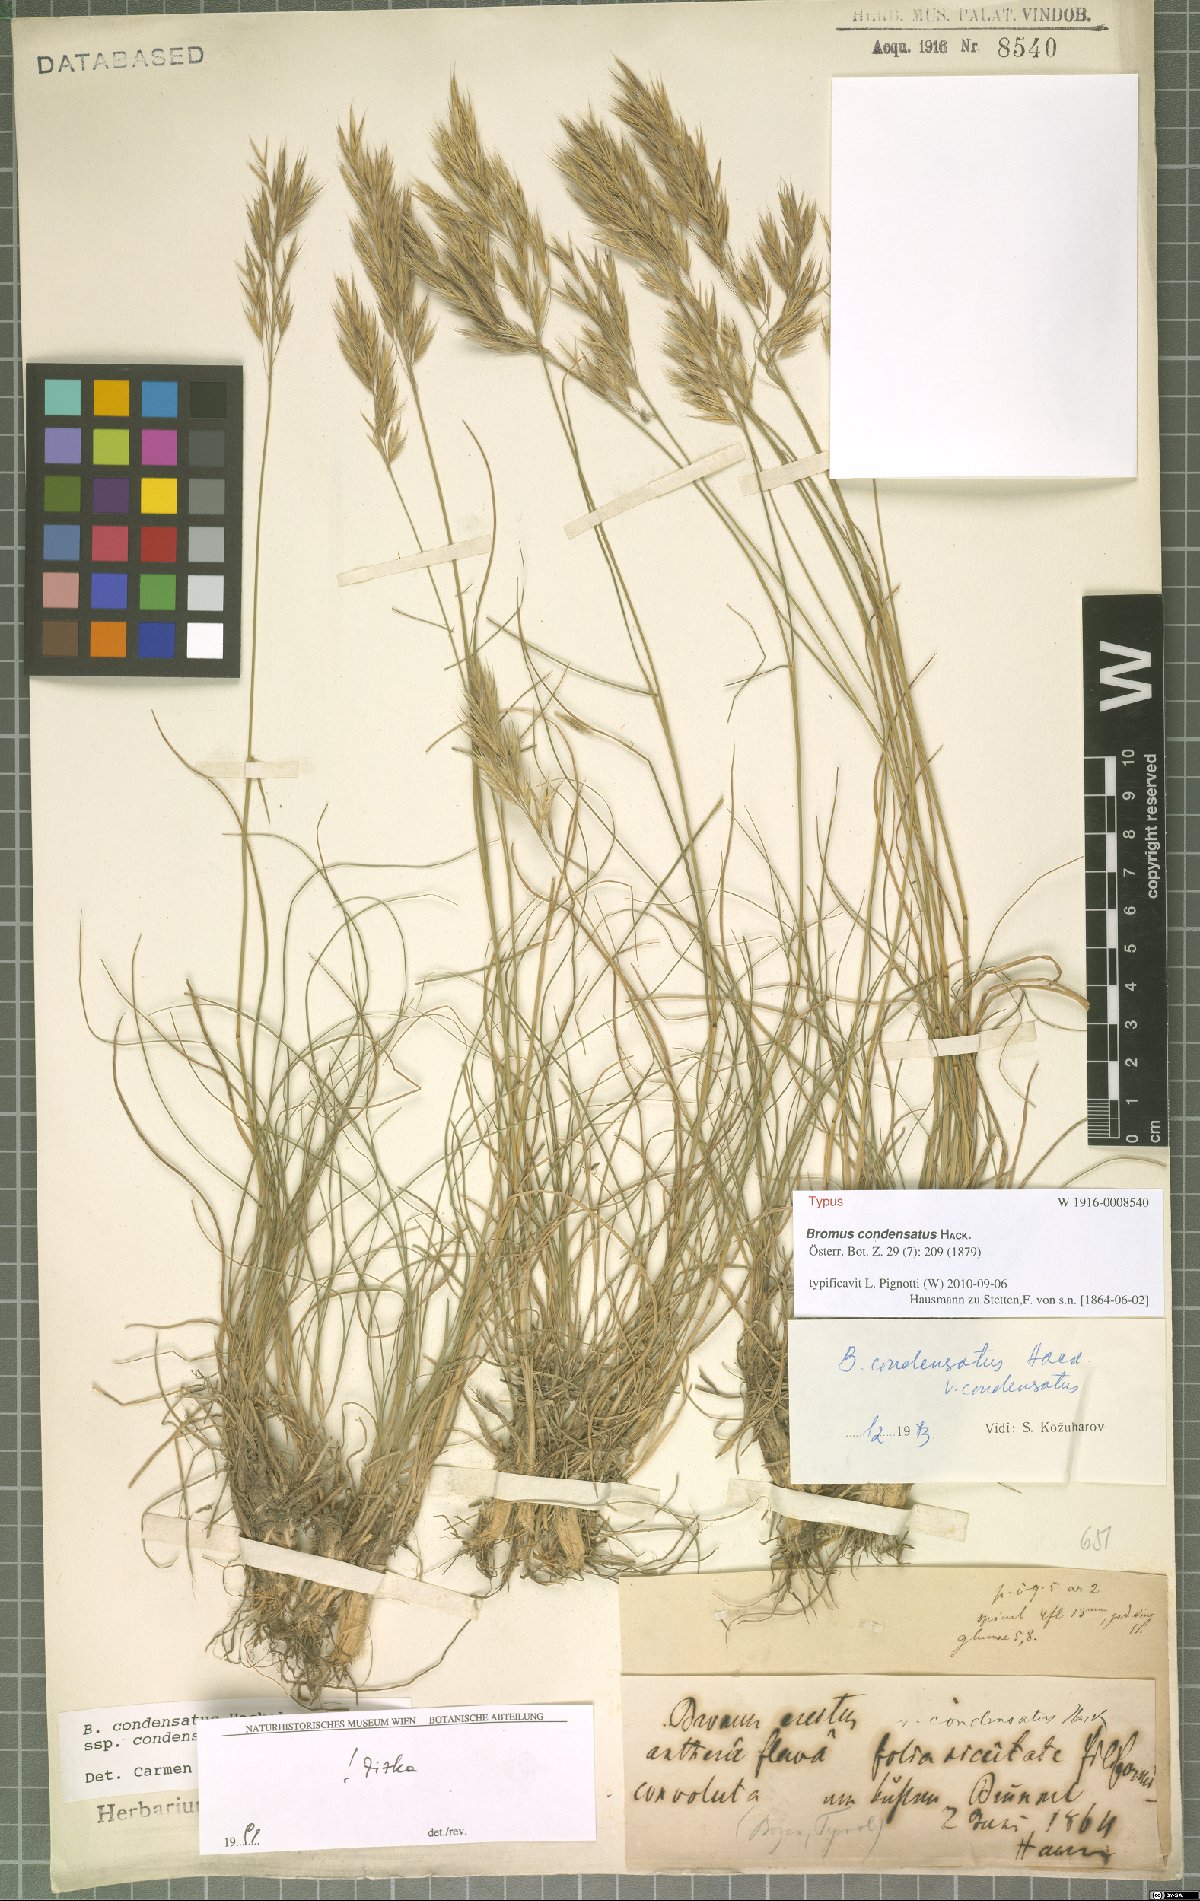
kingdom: Plantae
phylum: Tracheophyta
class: Liliopsida
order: Poales
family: Poaceae
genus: Bromus
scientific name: Bromus condensatus
